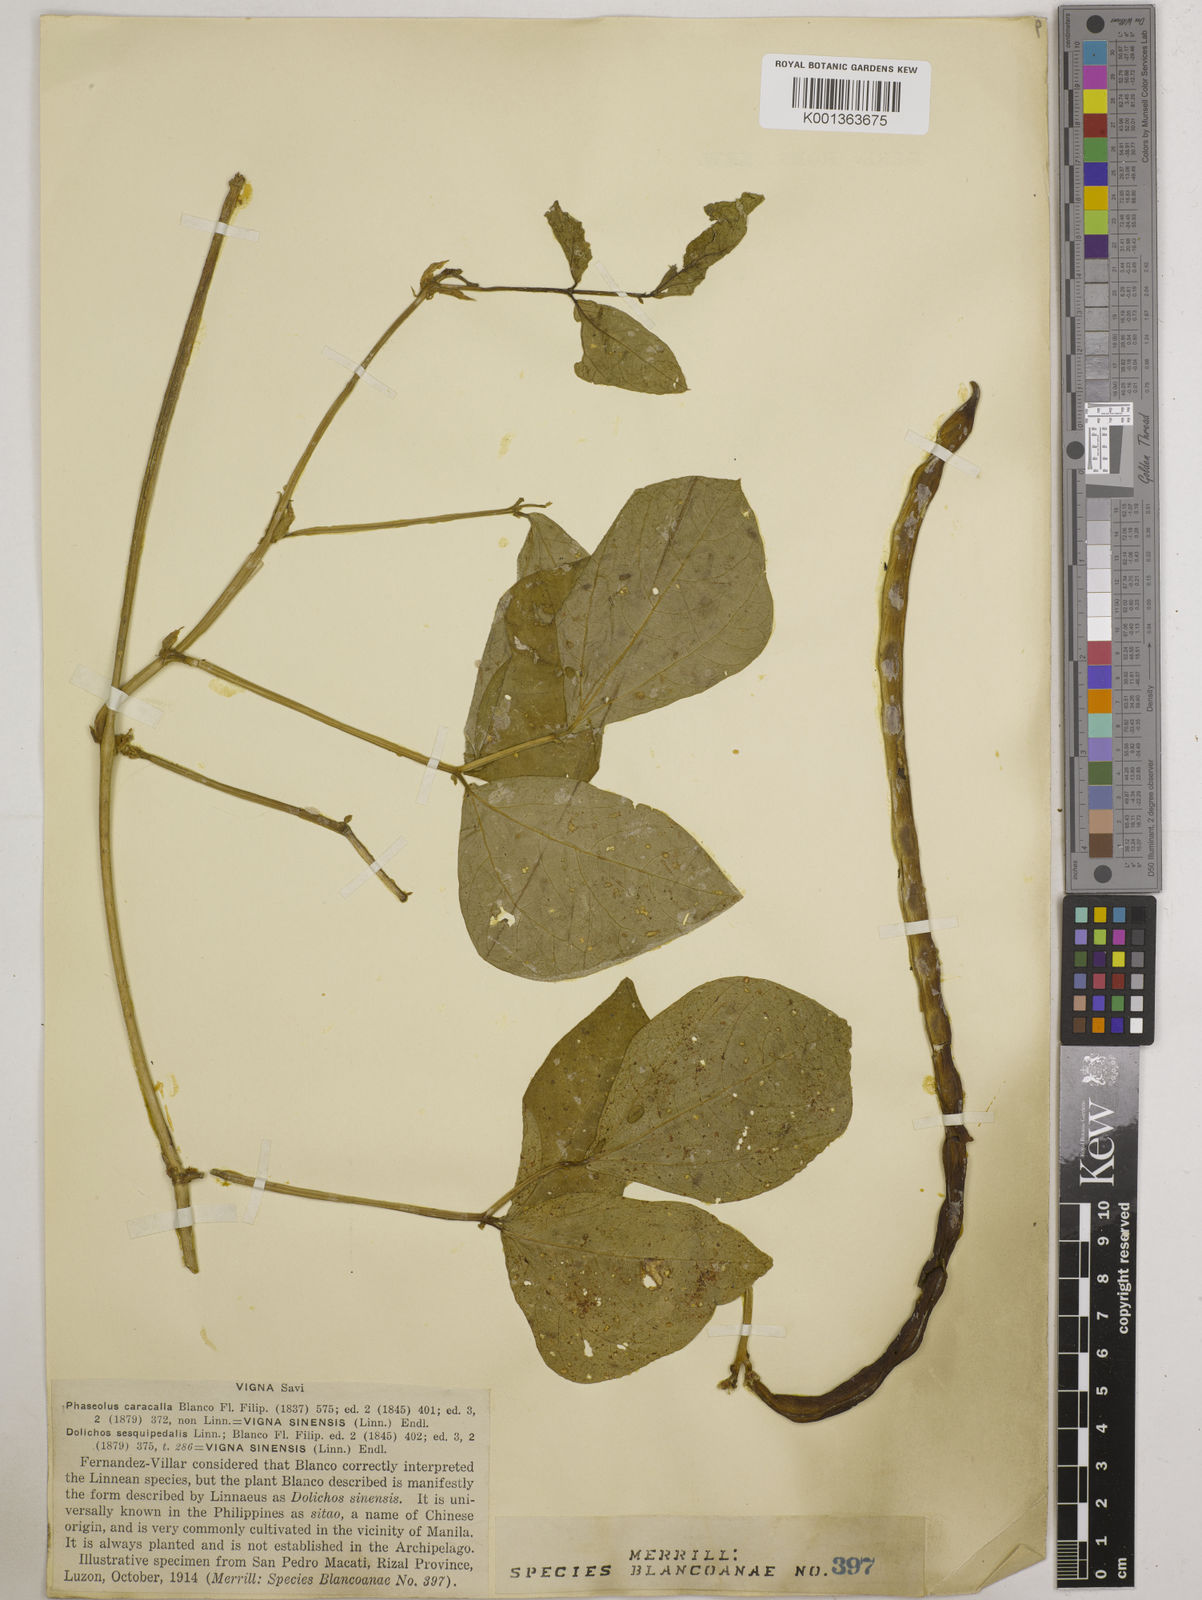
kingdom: Plantae
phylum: Tracheophyta
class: Magnoliopsida
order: Fabales
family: Fabaceae
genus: Vigna
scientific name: Vigna unguiculata
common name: Cowpea
